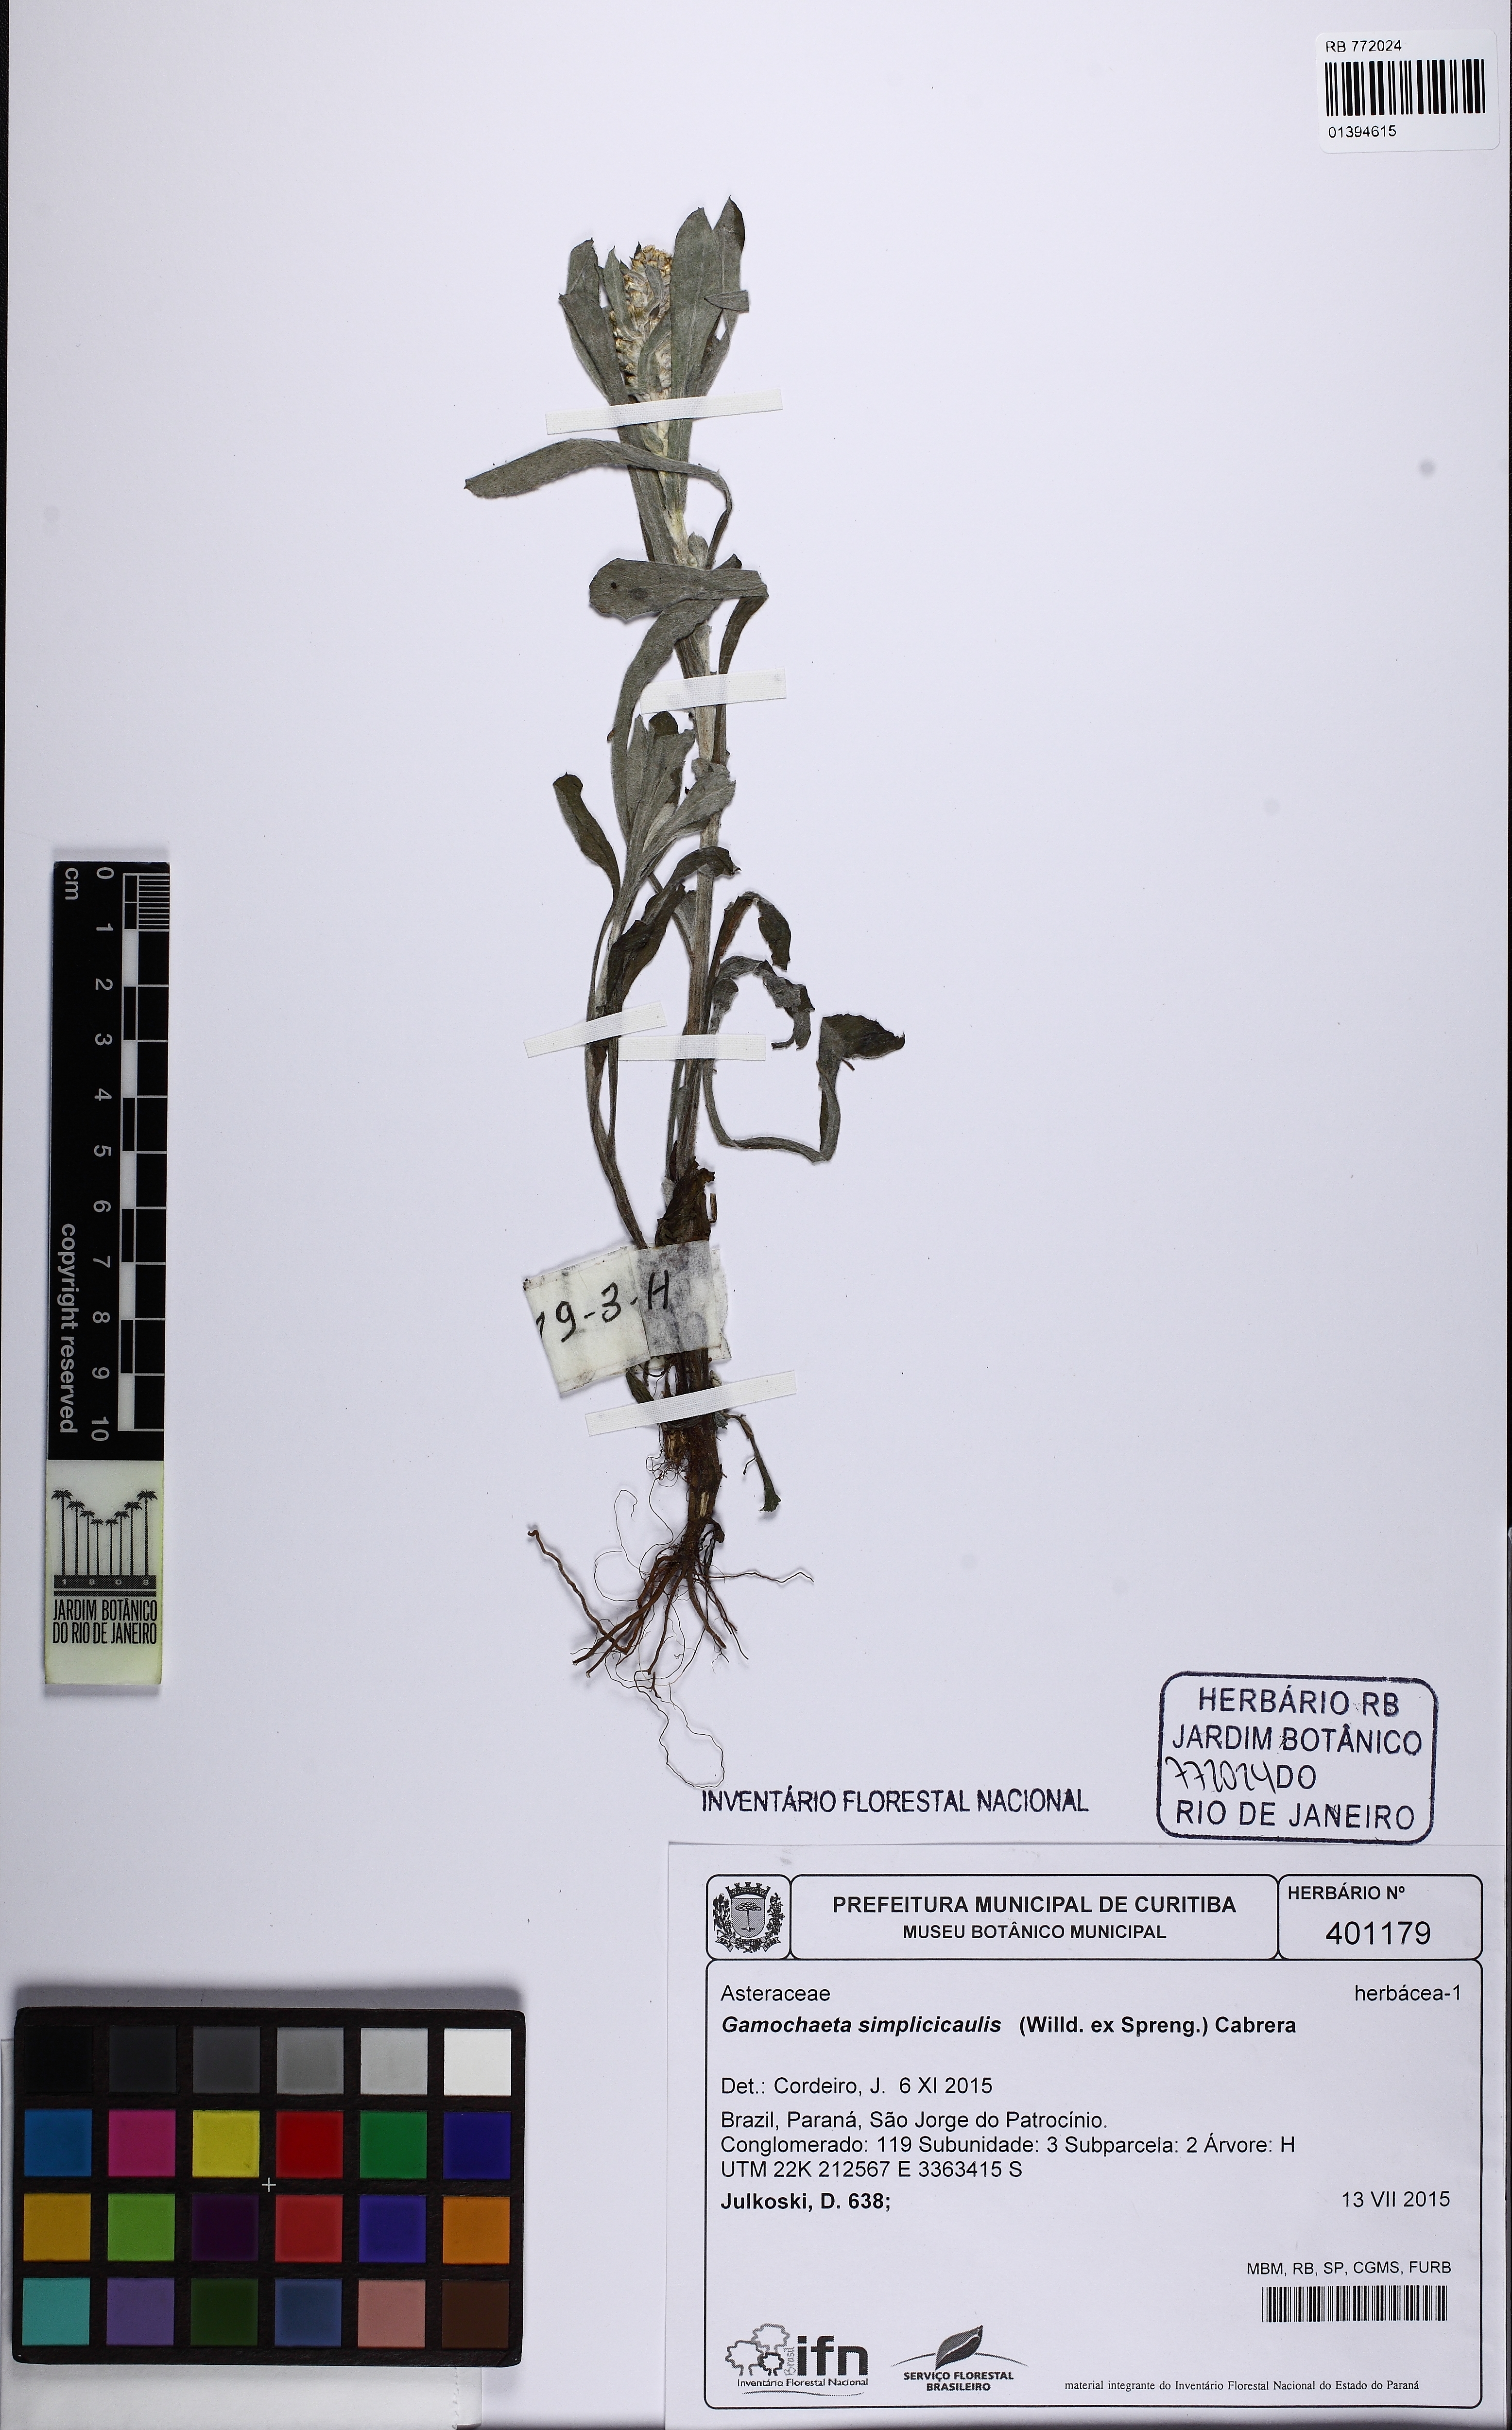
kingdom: Plantae
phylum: Tracheophyta
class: Magnoliopsida
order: Asterales
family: Asteraceae
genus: Gamochaeta
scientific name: Gamochaeta simplicicaulis
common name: Simple-stem everlasting
